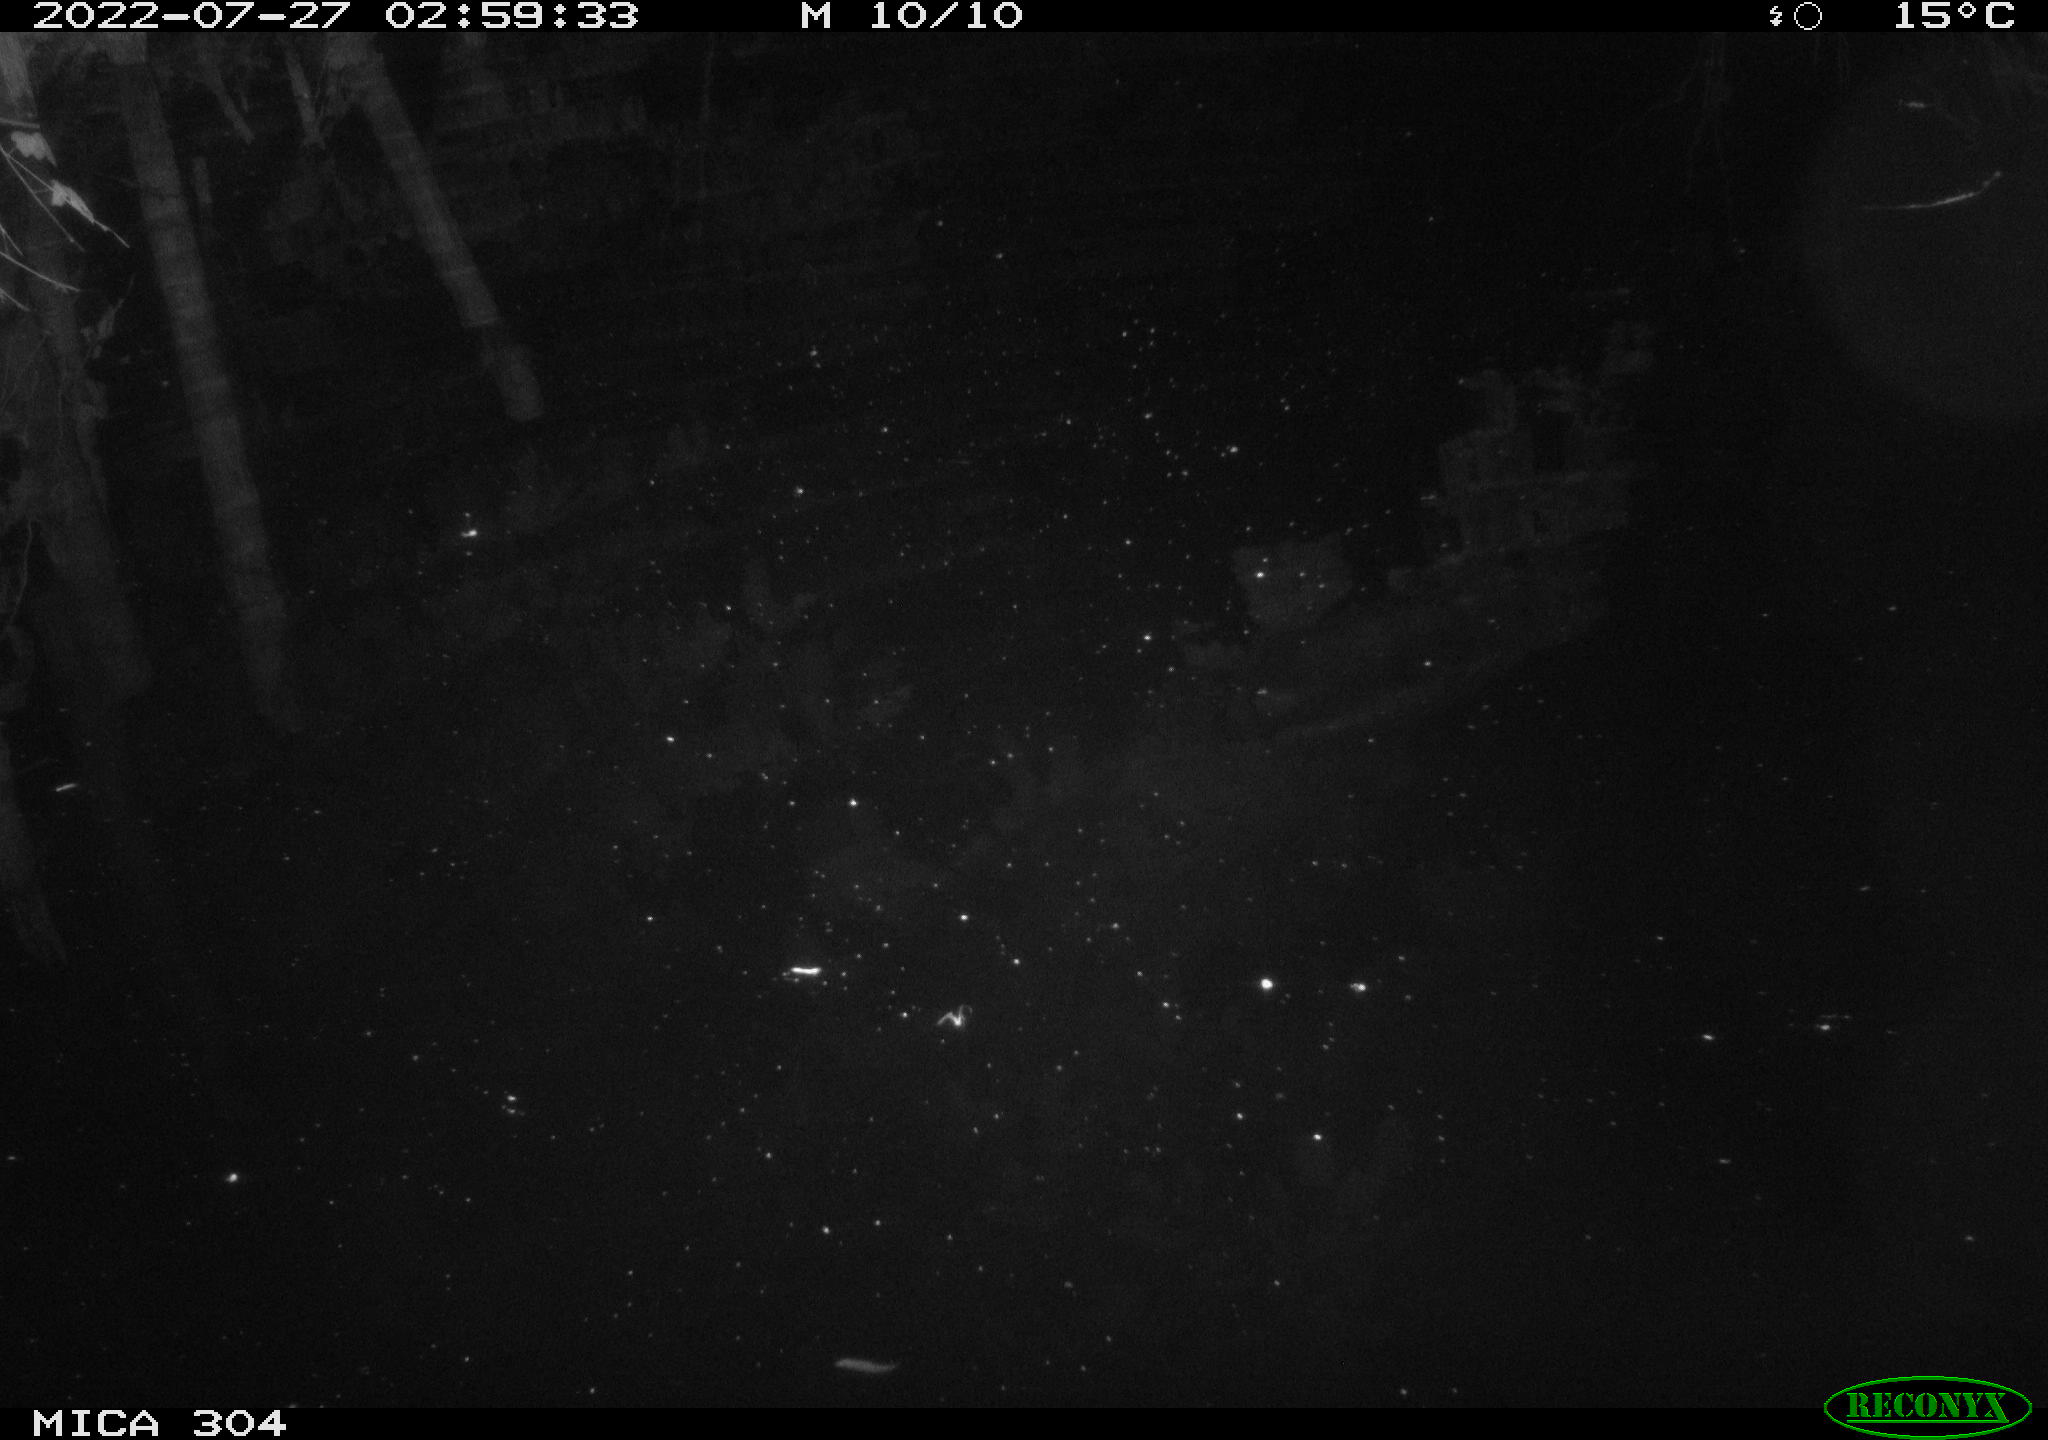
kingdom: Animalia
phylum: Chordata
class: Mammalia
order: Rodentia
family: Muridae
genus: Rattus
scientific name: Rattus norvegicus
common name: Brown rat
